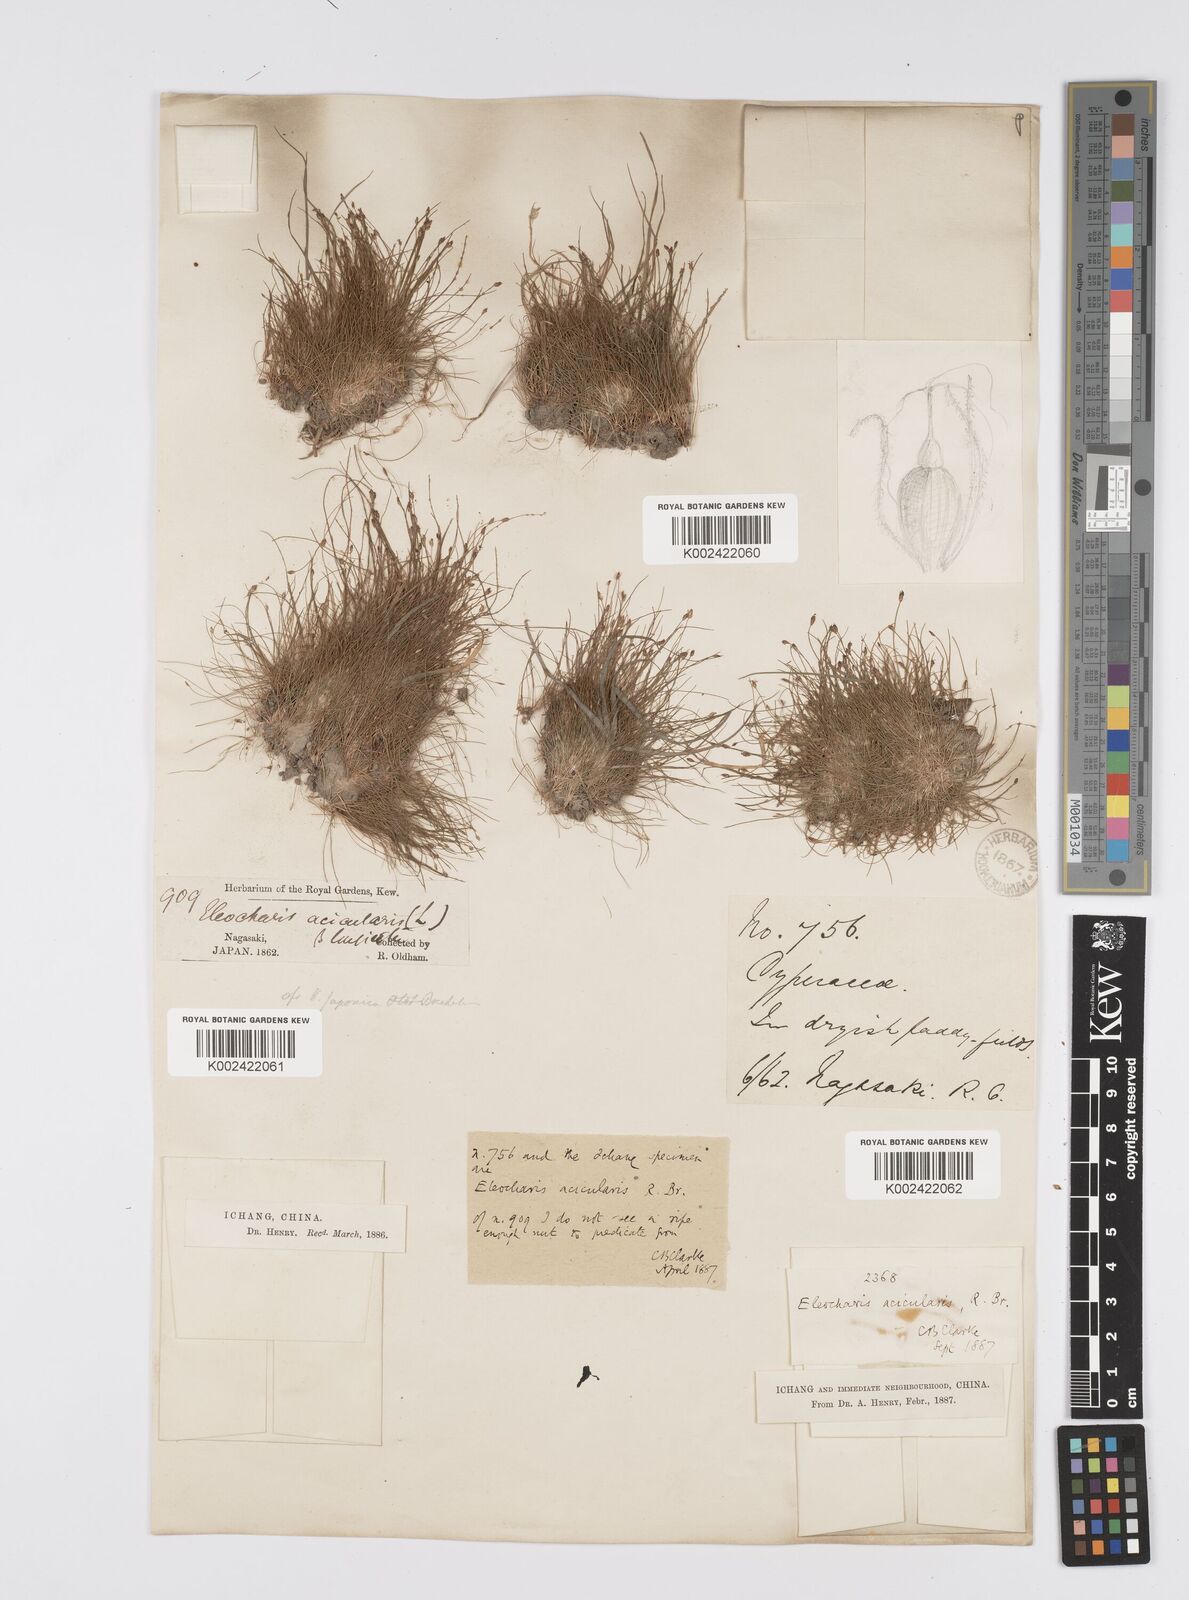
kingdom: Plantae
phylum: Tracheophyta
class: Liliopsida
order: Poales
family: Cyperaceae
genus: Eleocharis
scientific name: Eleocharis acicularis
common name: Needle spike-rush
